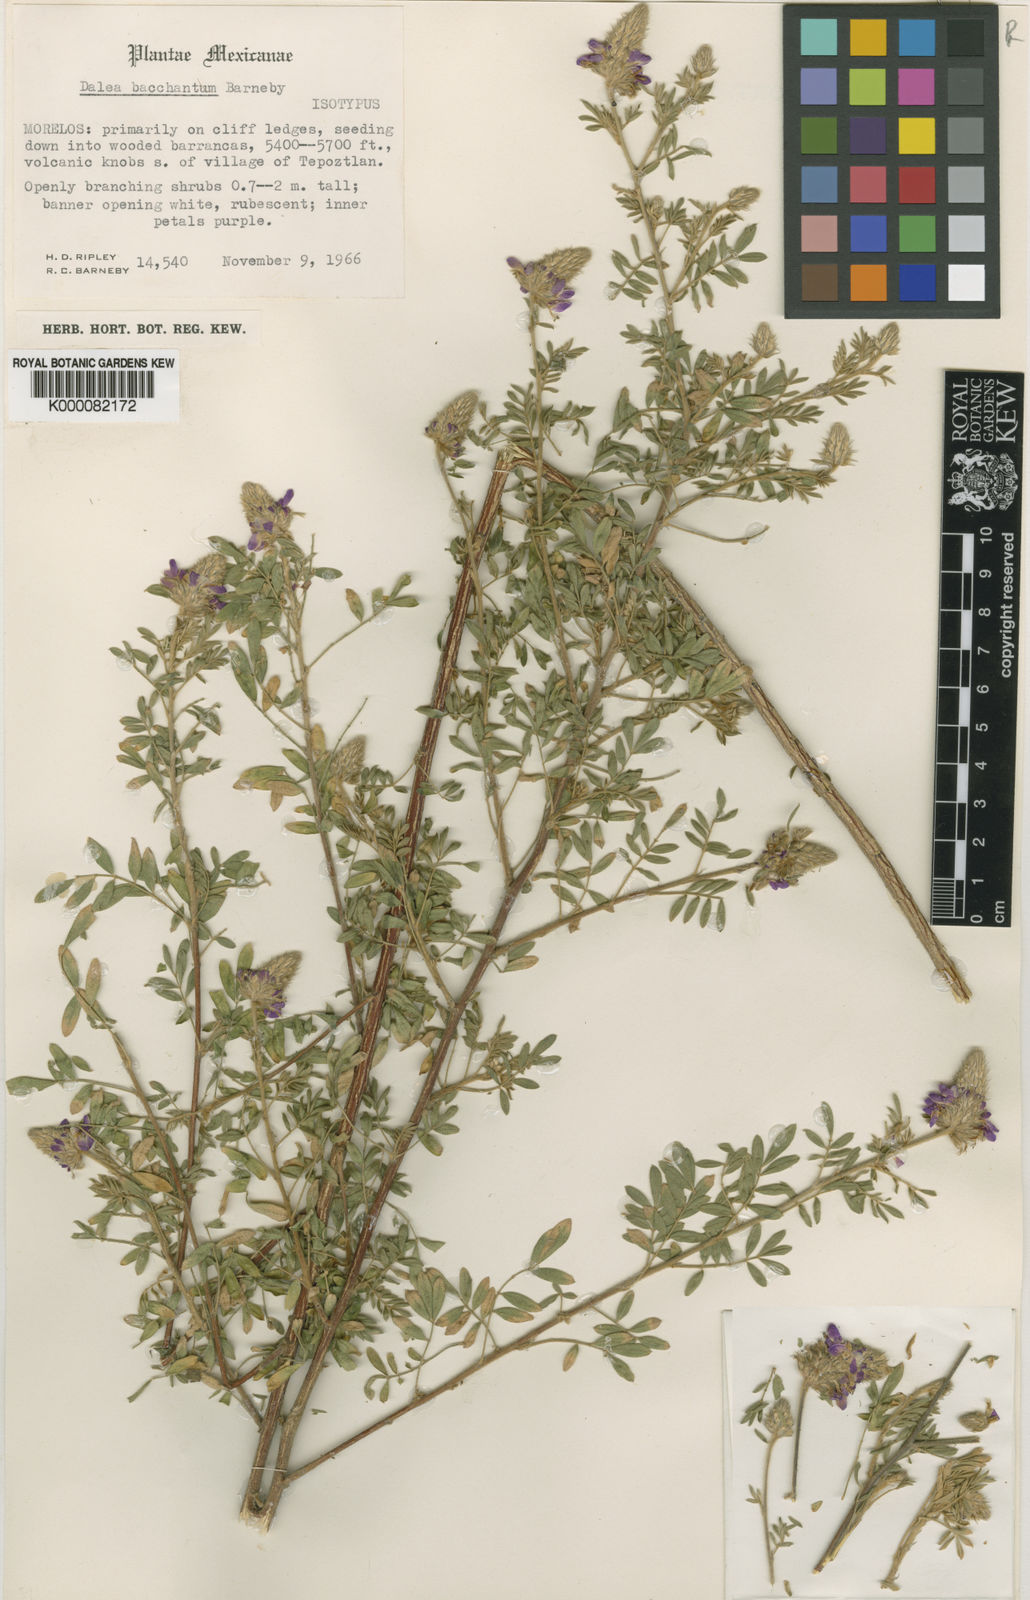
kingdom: Plantae
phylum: Tracheophyta
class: Magnoliopsida
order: Fabales
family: Fabaceae
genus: Dalea
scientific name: Dalea bacchantum
